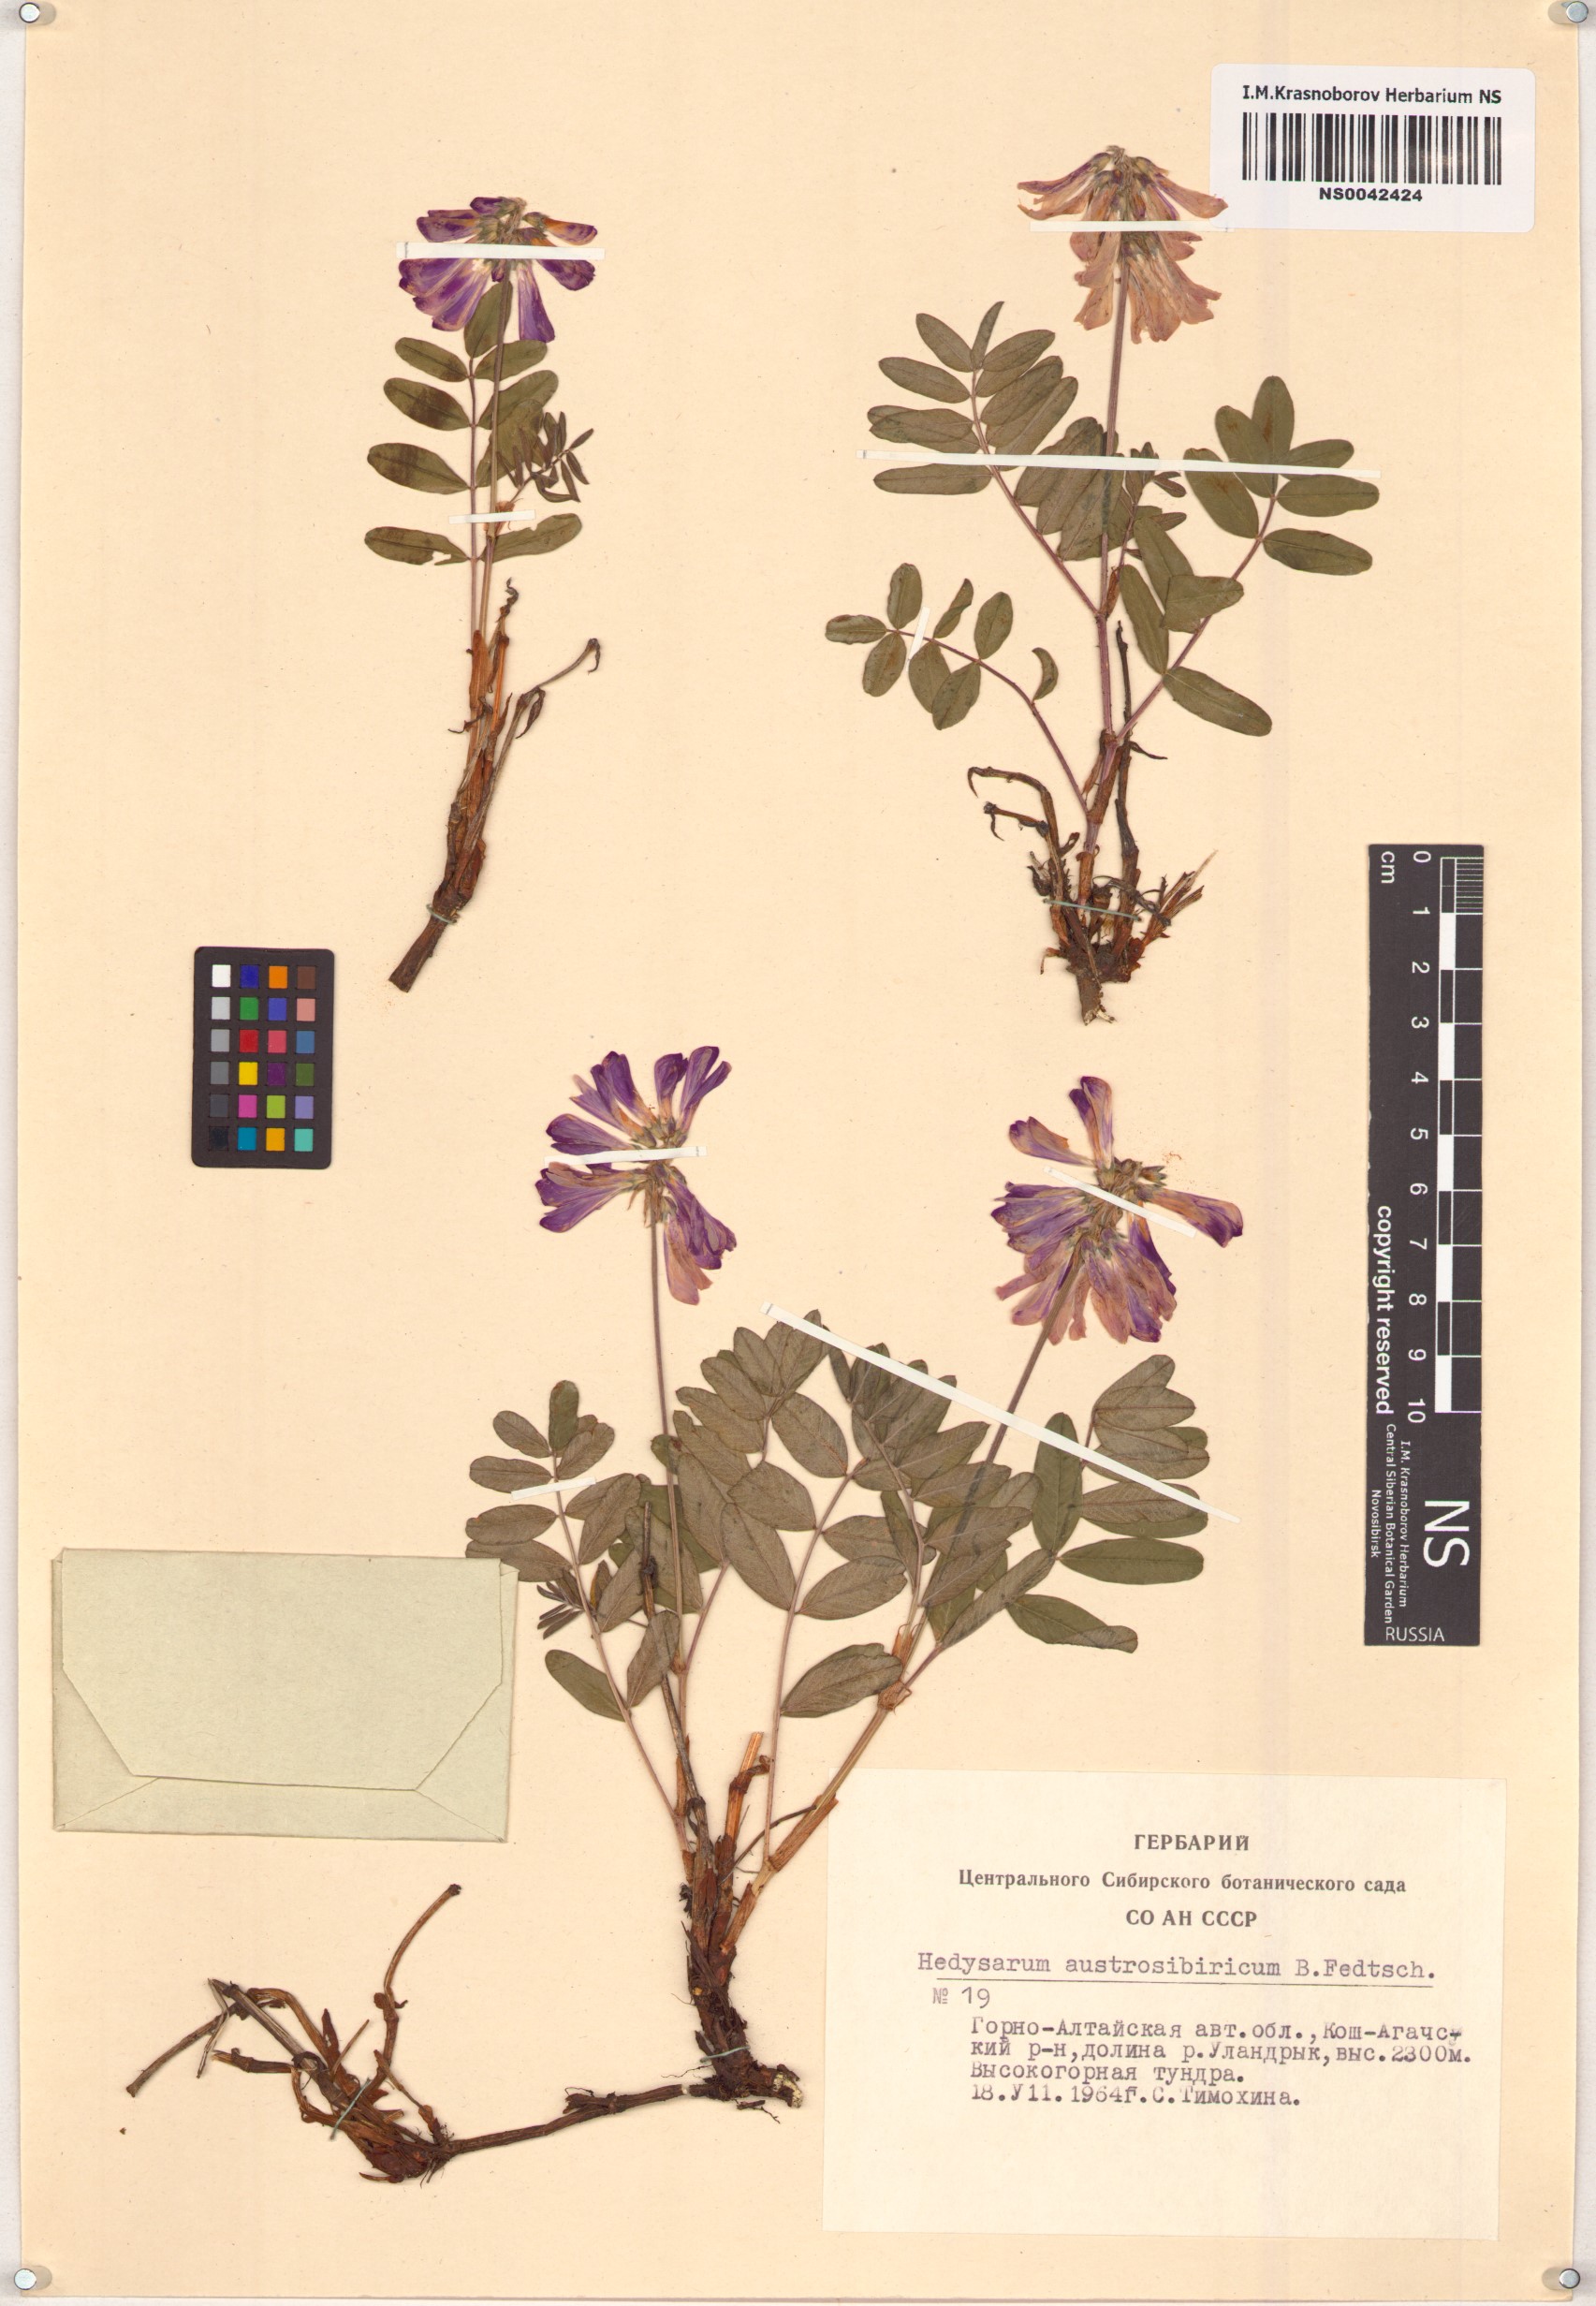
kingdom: Plantae
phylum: Tracheophyta
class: Magnoliopsida
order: Fabales
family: Fabaceae
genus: Hedysarum
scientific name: Hedysarum neglectum
